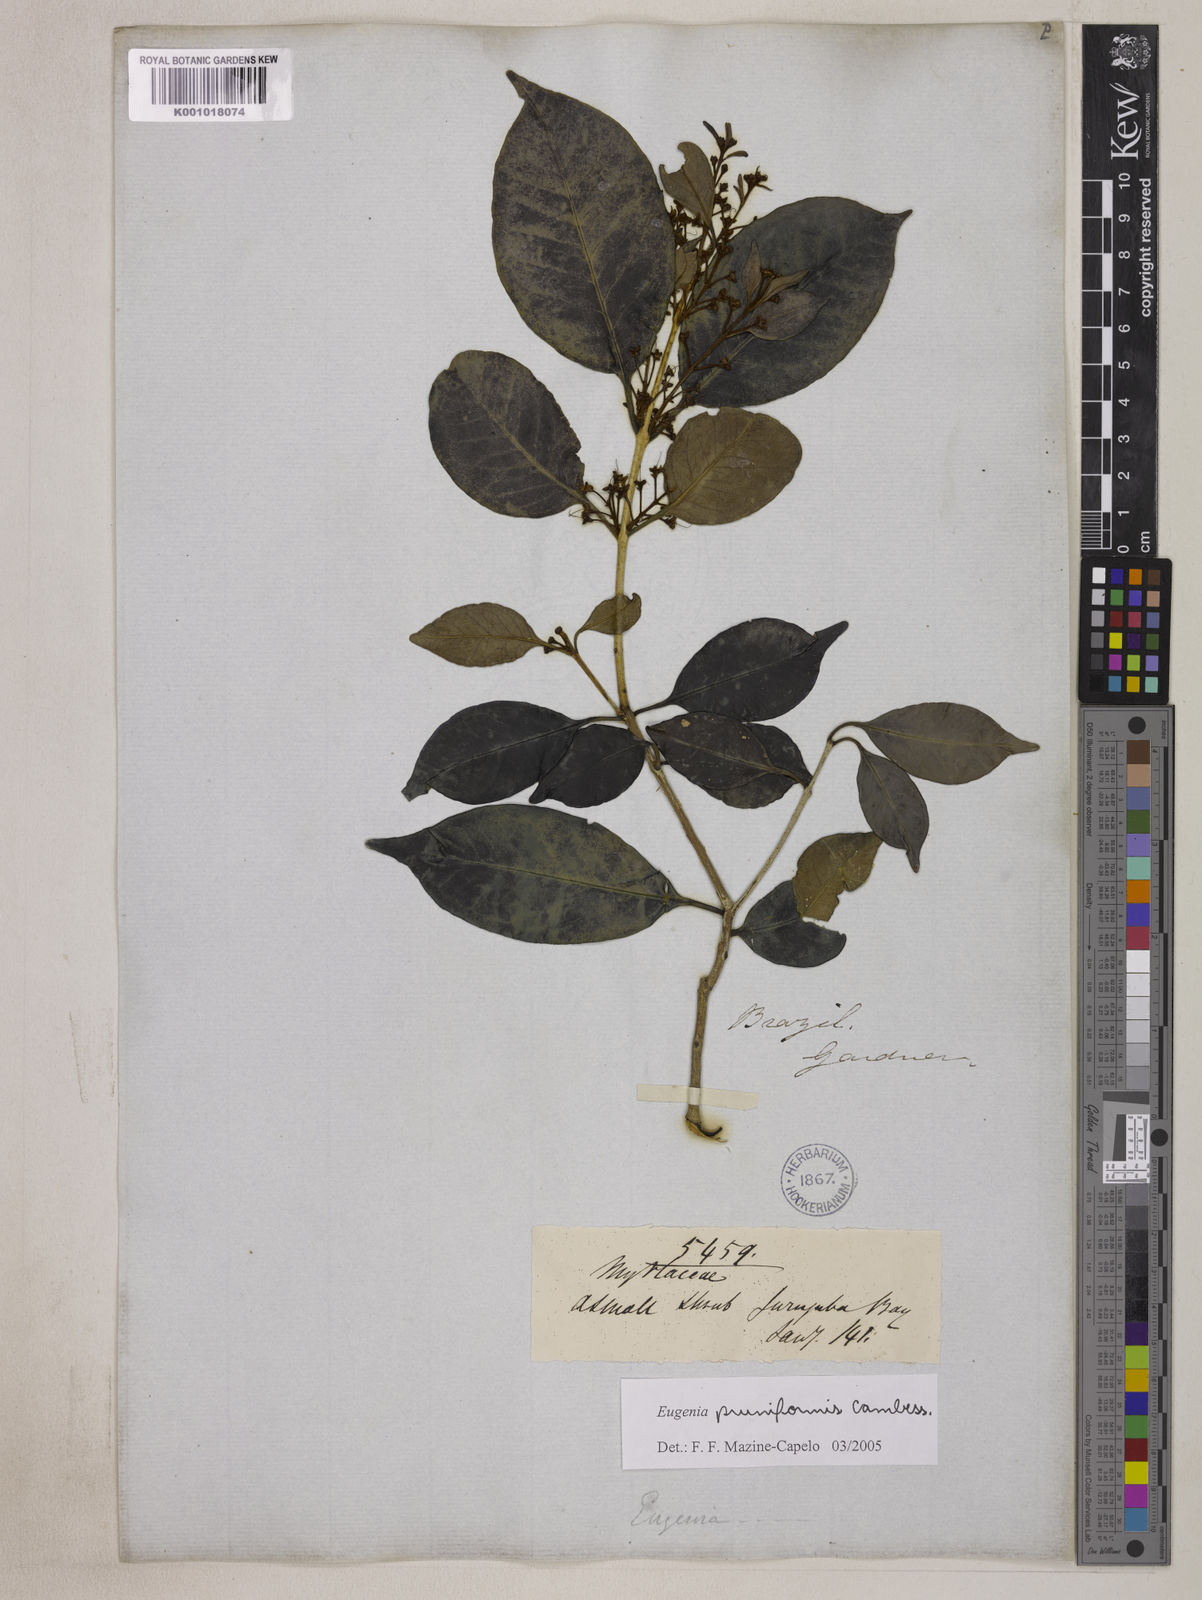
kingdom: Plantae
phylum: Tracheophyta
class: Magnoliopsida
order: Myrtales
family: Myrtaceae
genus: Eugenia
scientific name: Eugenia pruniformis
